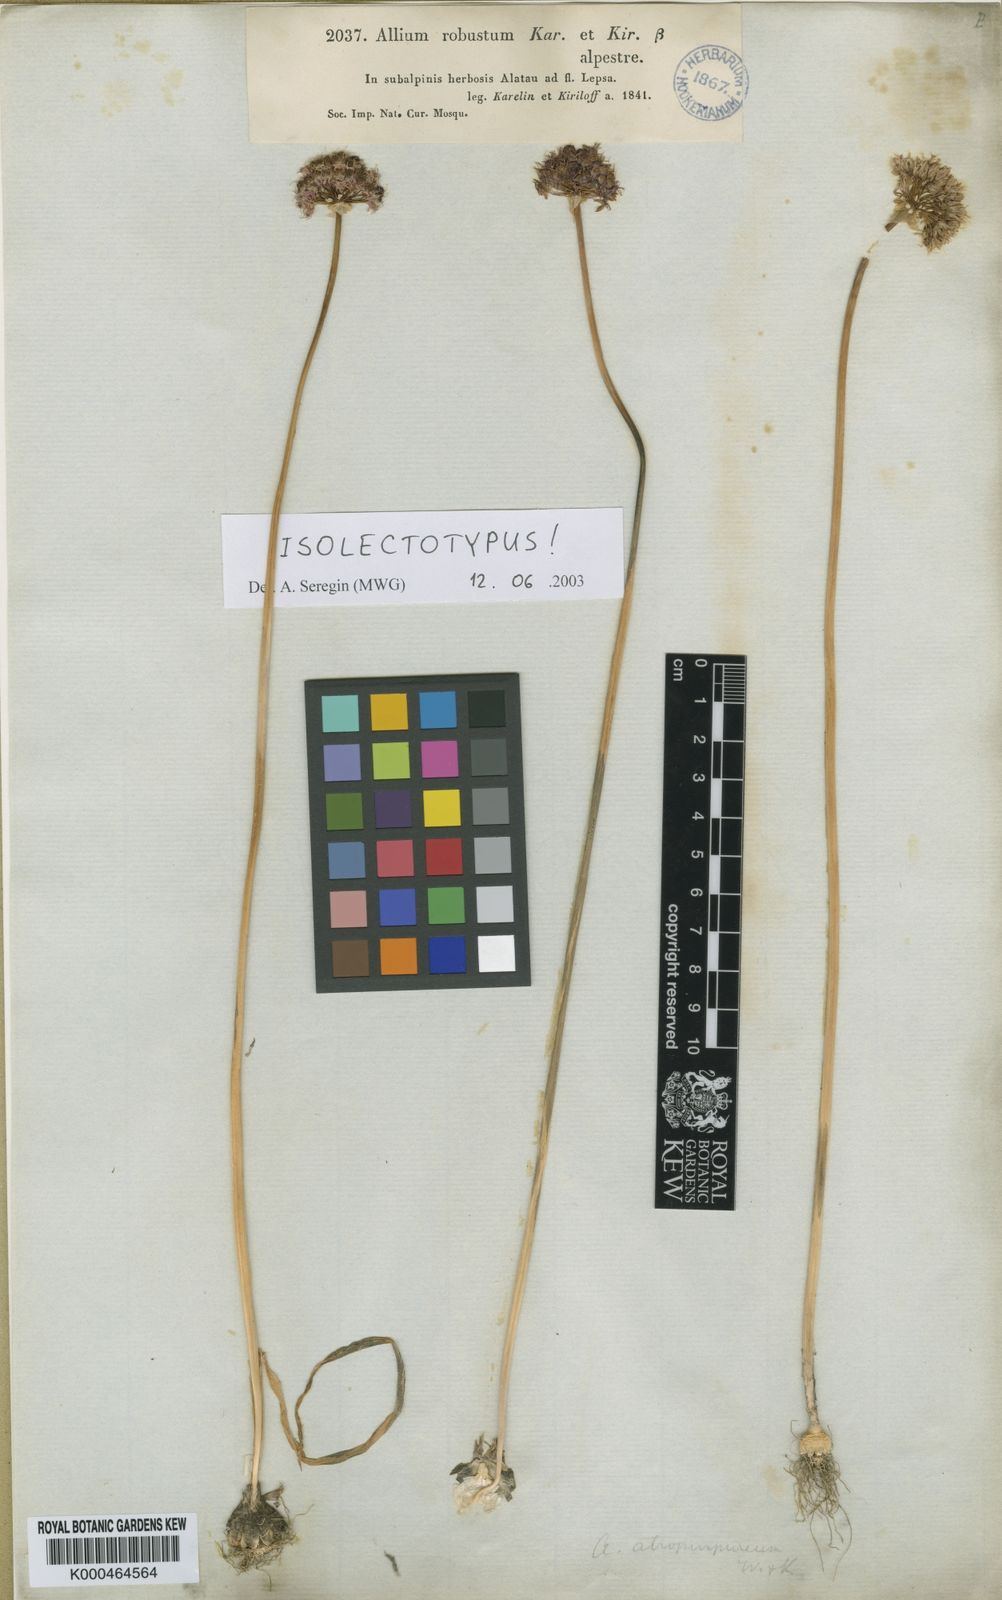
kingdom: Plantae
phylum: Tracheophyta
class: Liliopsida
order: Asparagales
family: Amaryllidaceae
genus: Allium
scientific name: Allium robustum
